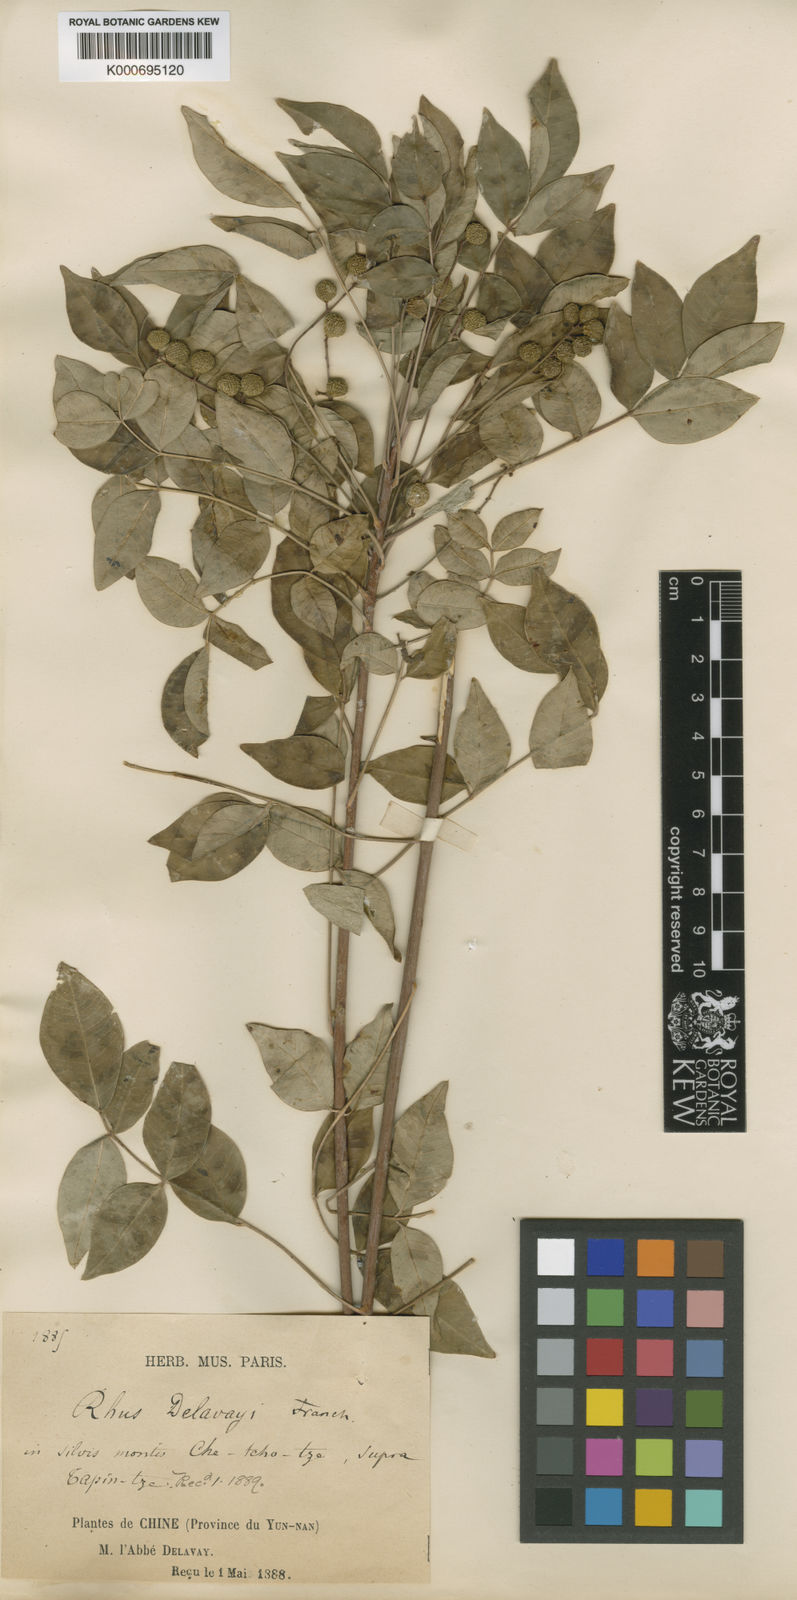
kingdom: Plantae
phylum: Tracheophyta
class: Magnoliopsida
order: Sapindales
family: Anacardiaceae
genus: Toxicodendron
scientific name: Toxicodendron delavayi
